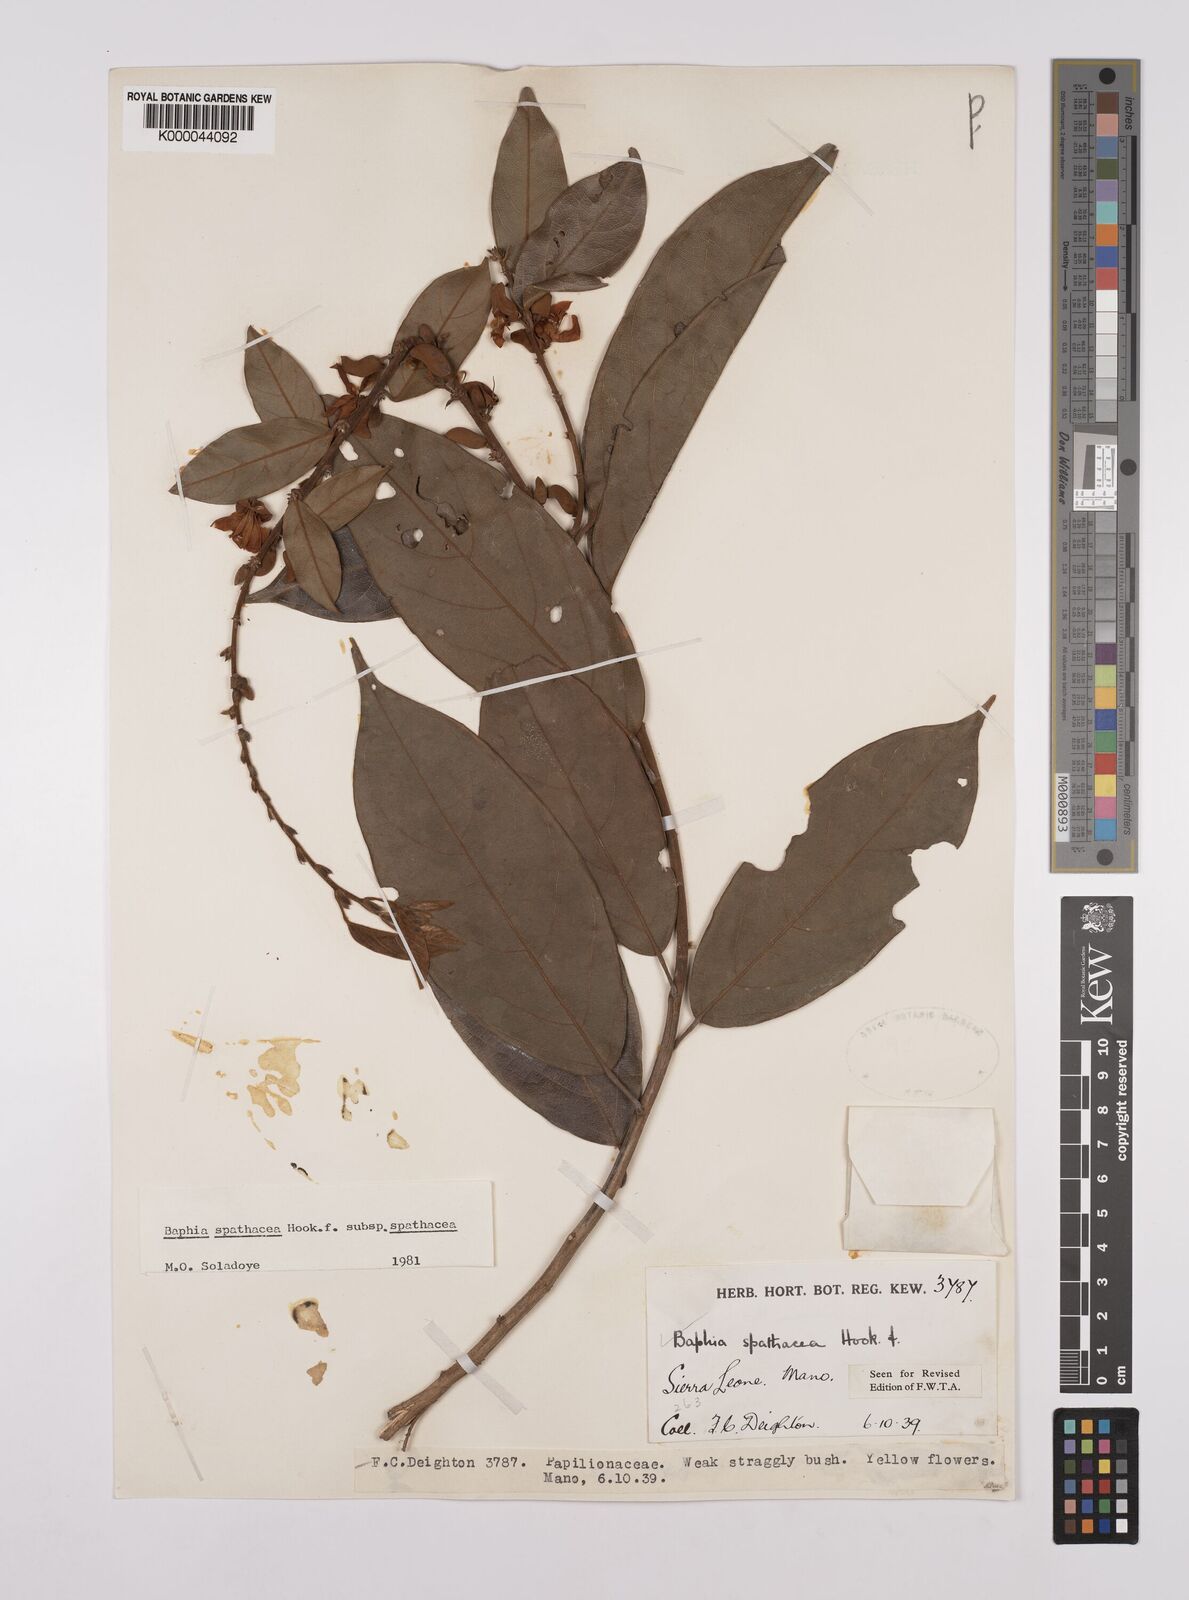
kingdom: Plantae
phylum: Tracheophyta
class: Magnoliopsida
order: Fabales
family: Fabaceae
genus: Baphia
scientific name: Baphia spathacea
